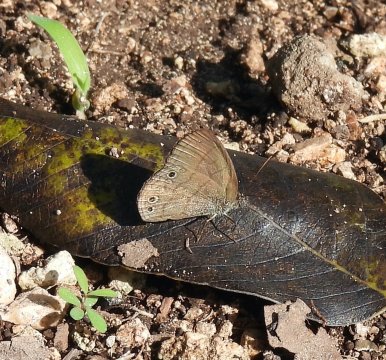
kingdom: Animalia
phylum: Arthropoda
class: Insecta
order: Lepidoptera
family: Nymphalidae
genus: Hermeuptychia
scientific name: Hermeuptychia hermes
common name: Carolina Satyr
